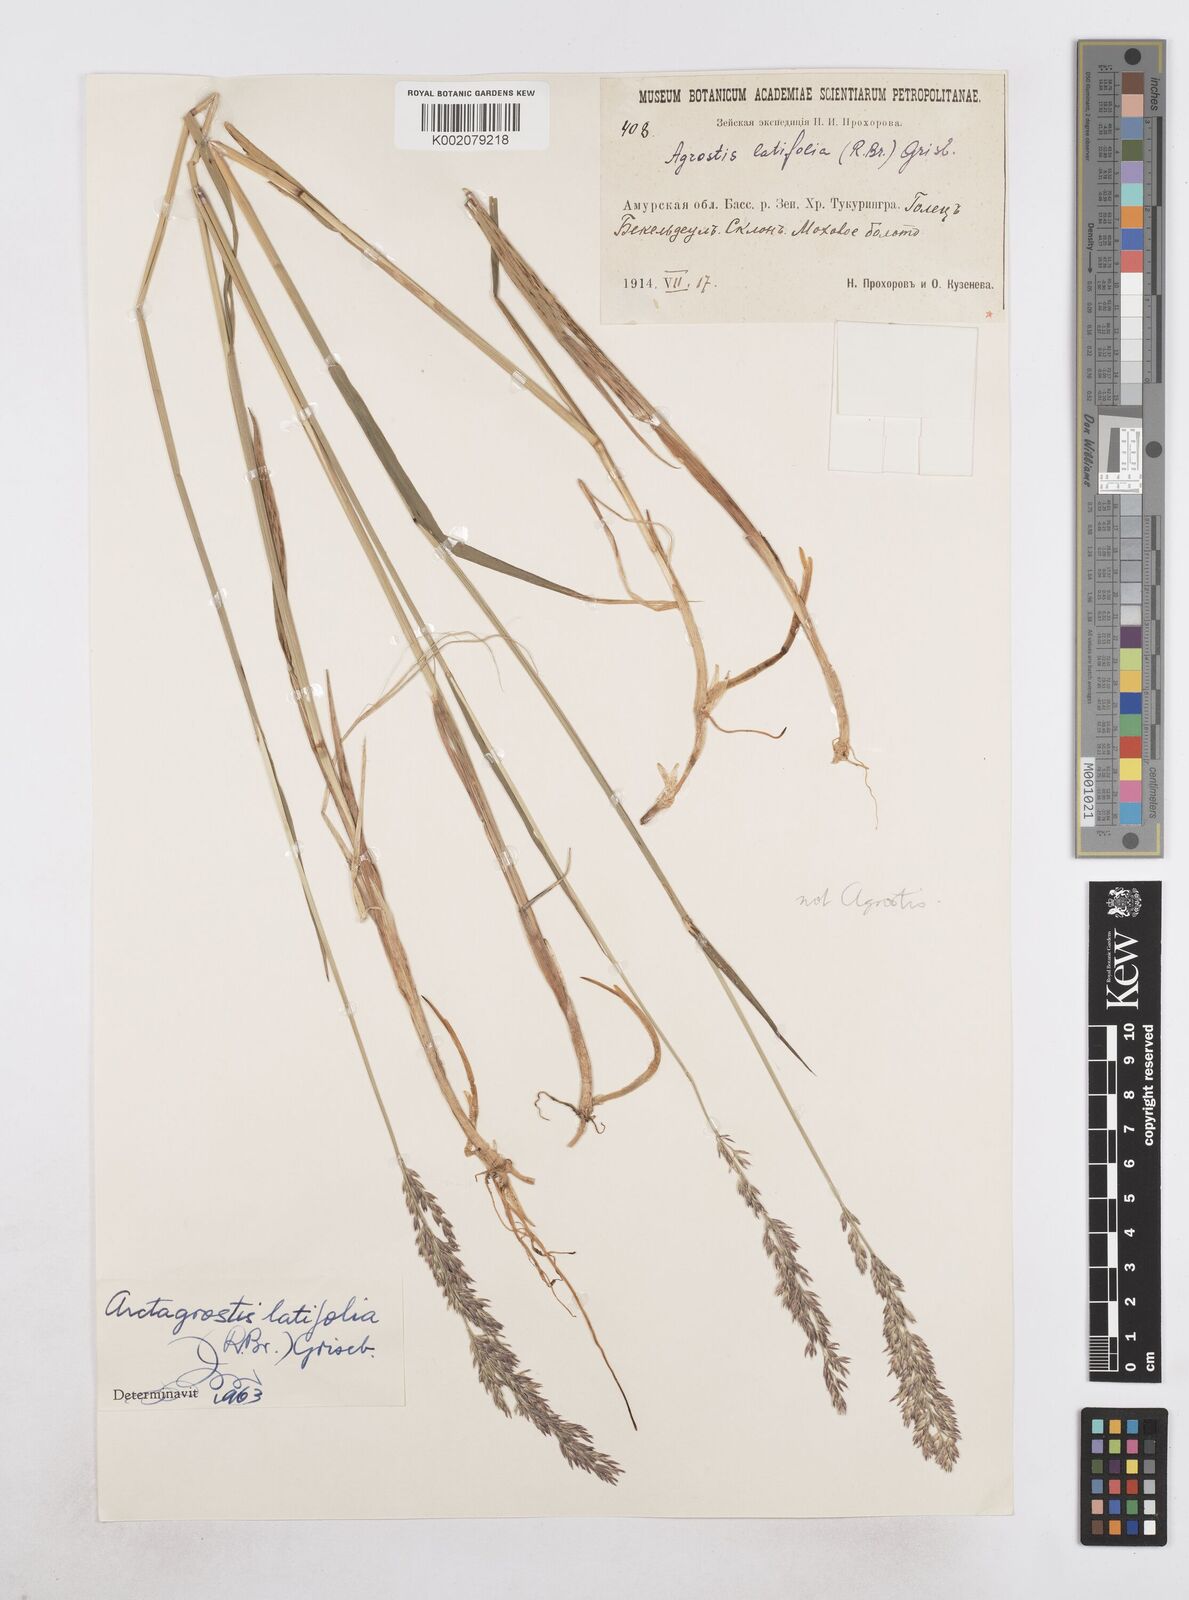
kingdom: Plantae
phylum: Tracheophyta
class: Liliopsida
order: Poales
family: Poaceae
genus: Arctagrostis
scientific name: Arctagrostis latifolia
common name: Arctic grass
